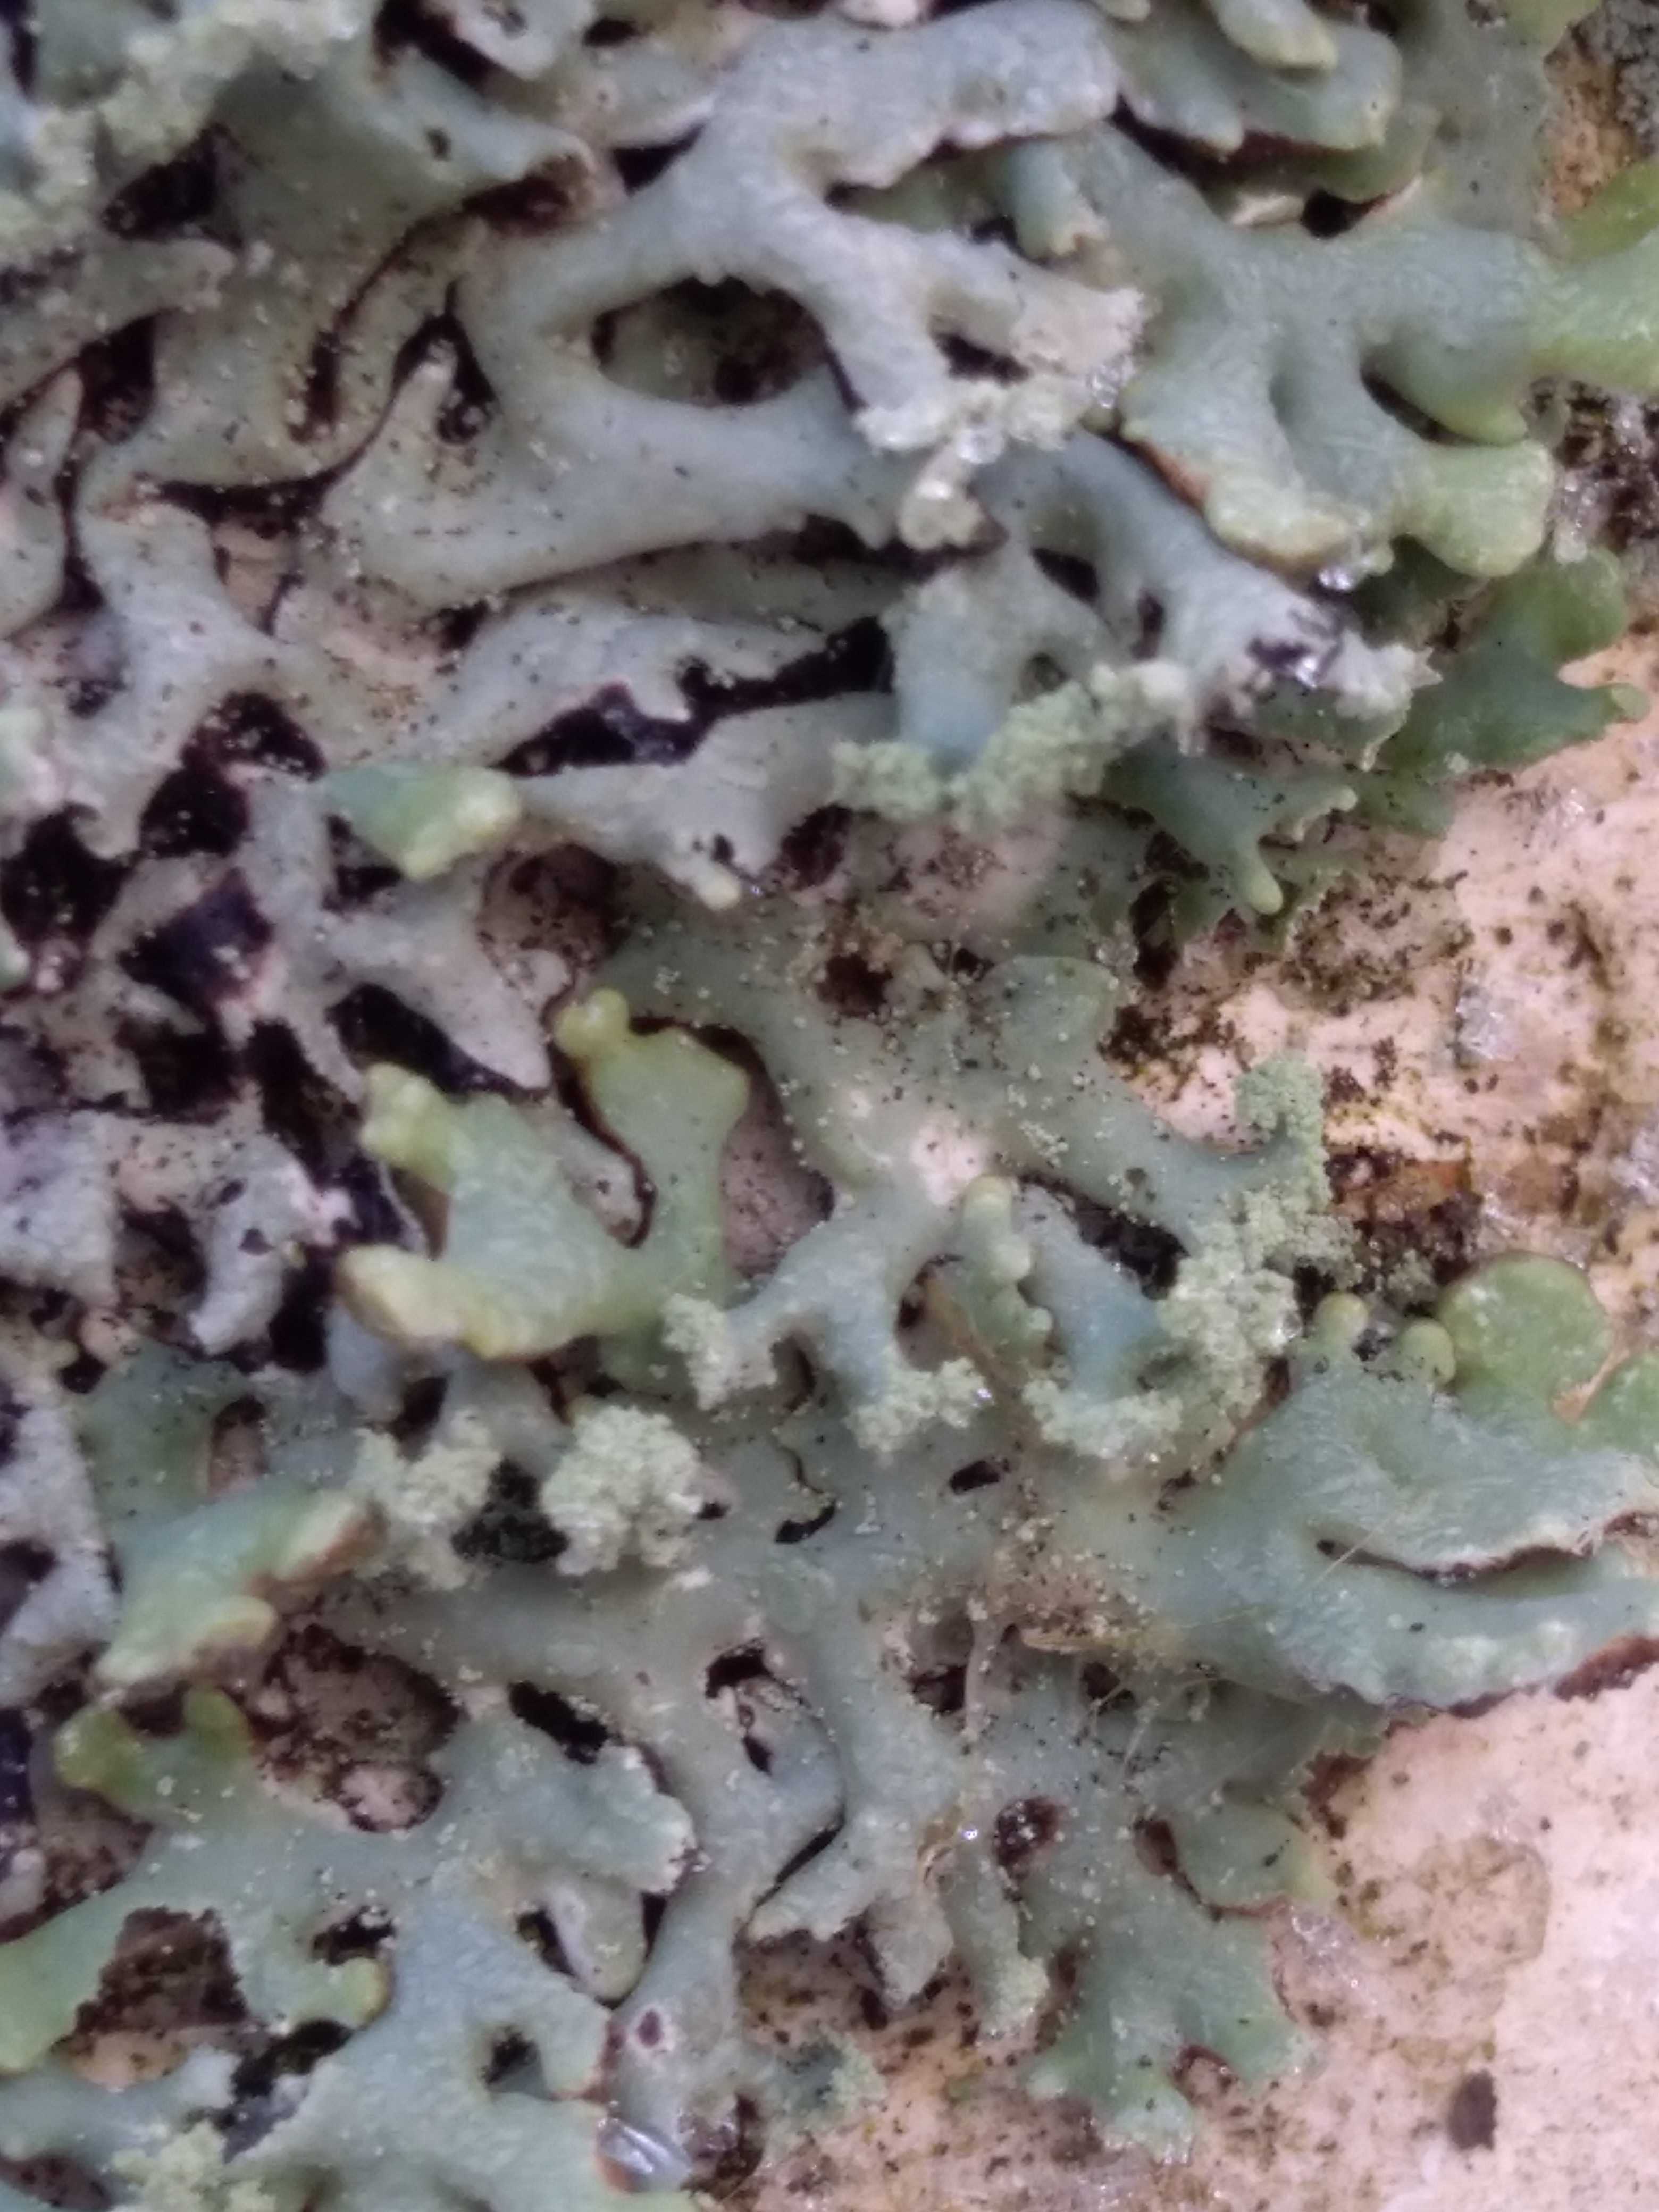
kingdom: Fungi
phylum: Ascomycota
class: Lecanoromycetes
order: Lecanorales
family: Parmeliaceae
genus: Hypogymnia
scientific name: Hypogymnia physodes
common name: almindelig kvistlav
